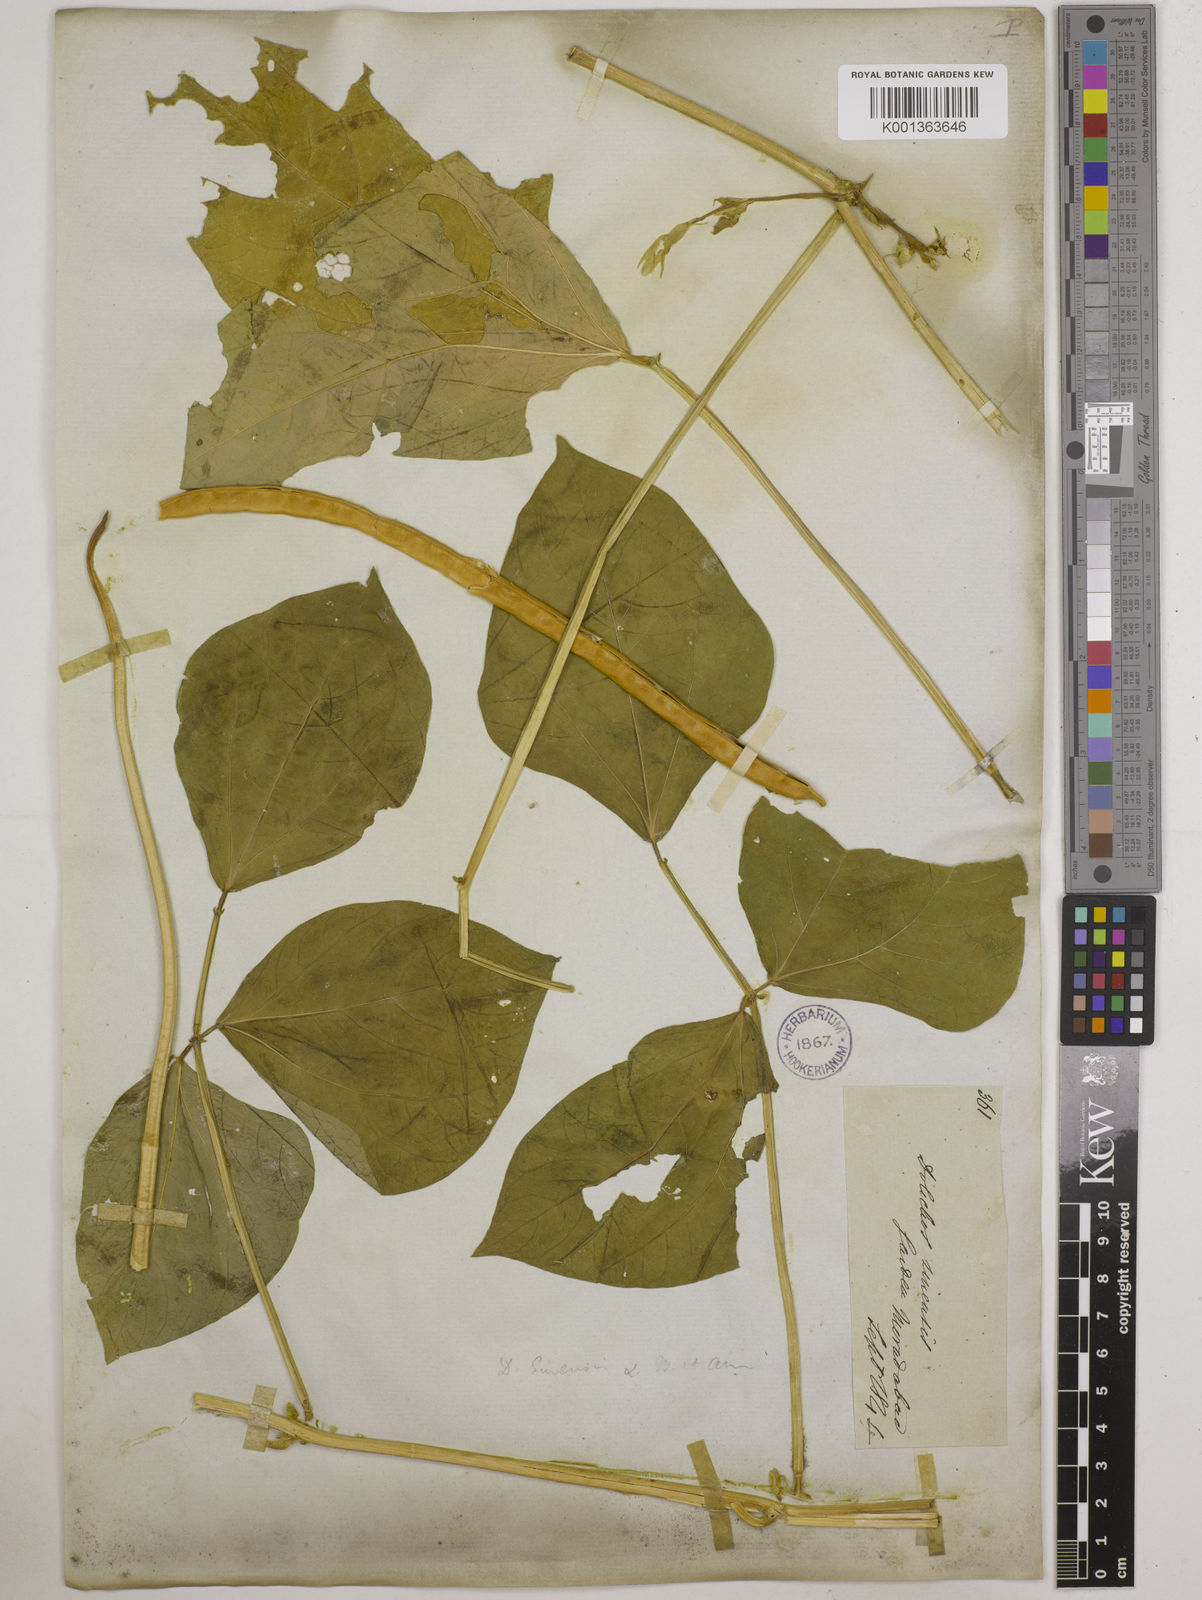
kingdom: Plantae
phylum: Tracheophyta
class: Magnoliopsida
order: Fabales
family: Fabaceae
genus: Vigna
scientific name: Vigna unguiculata
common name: Cowpea
